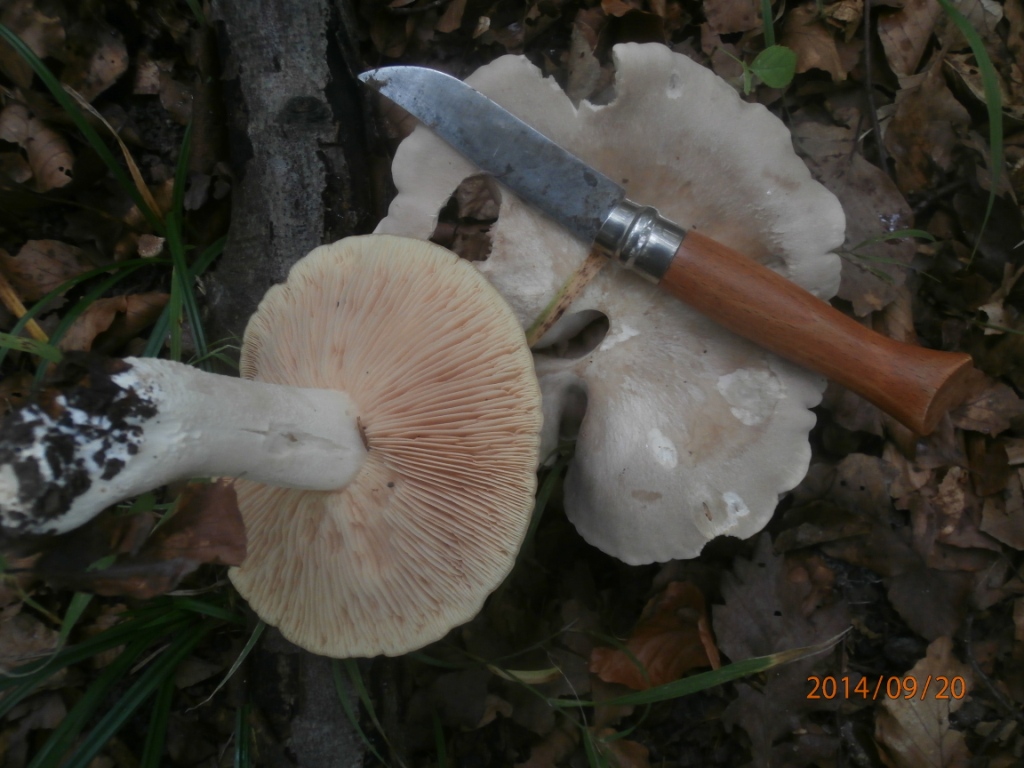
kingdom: Fungi
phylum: Basidiomycota
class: Agaricomycetes
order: Agaricales
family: Entolomataceae
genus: Entoloma
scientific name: Entoloma sinuatum
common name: giftig rødblad
